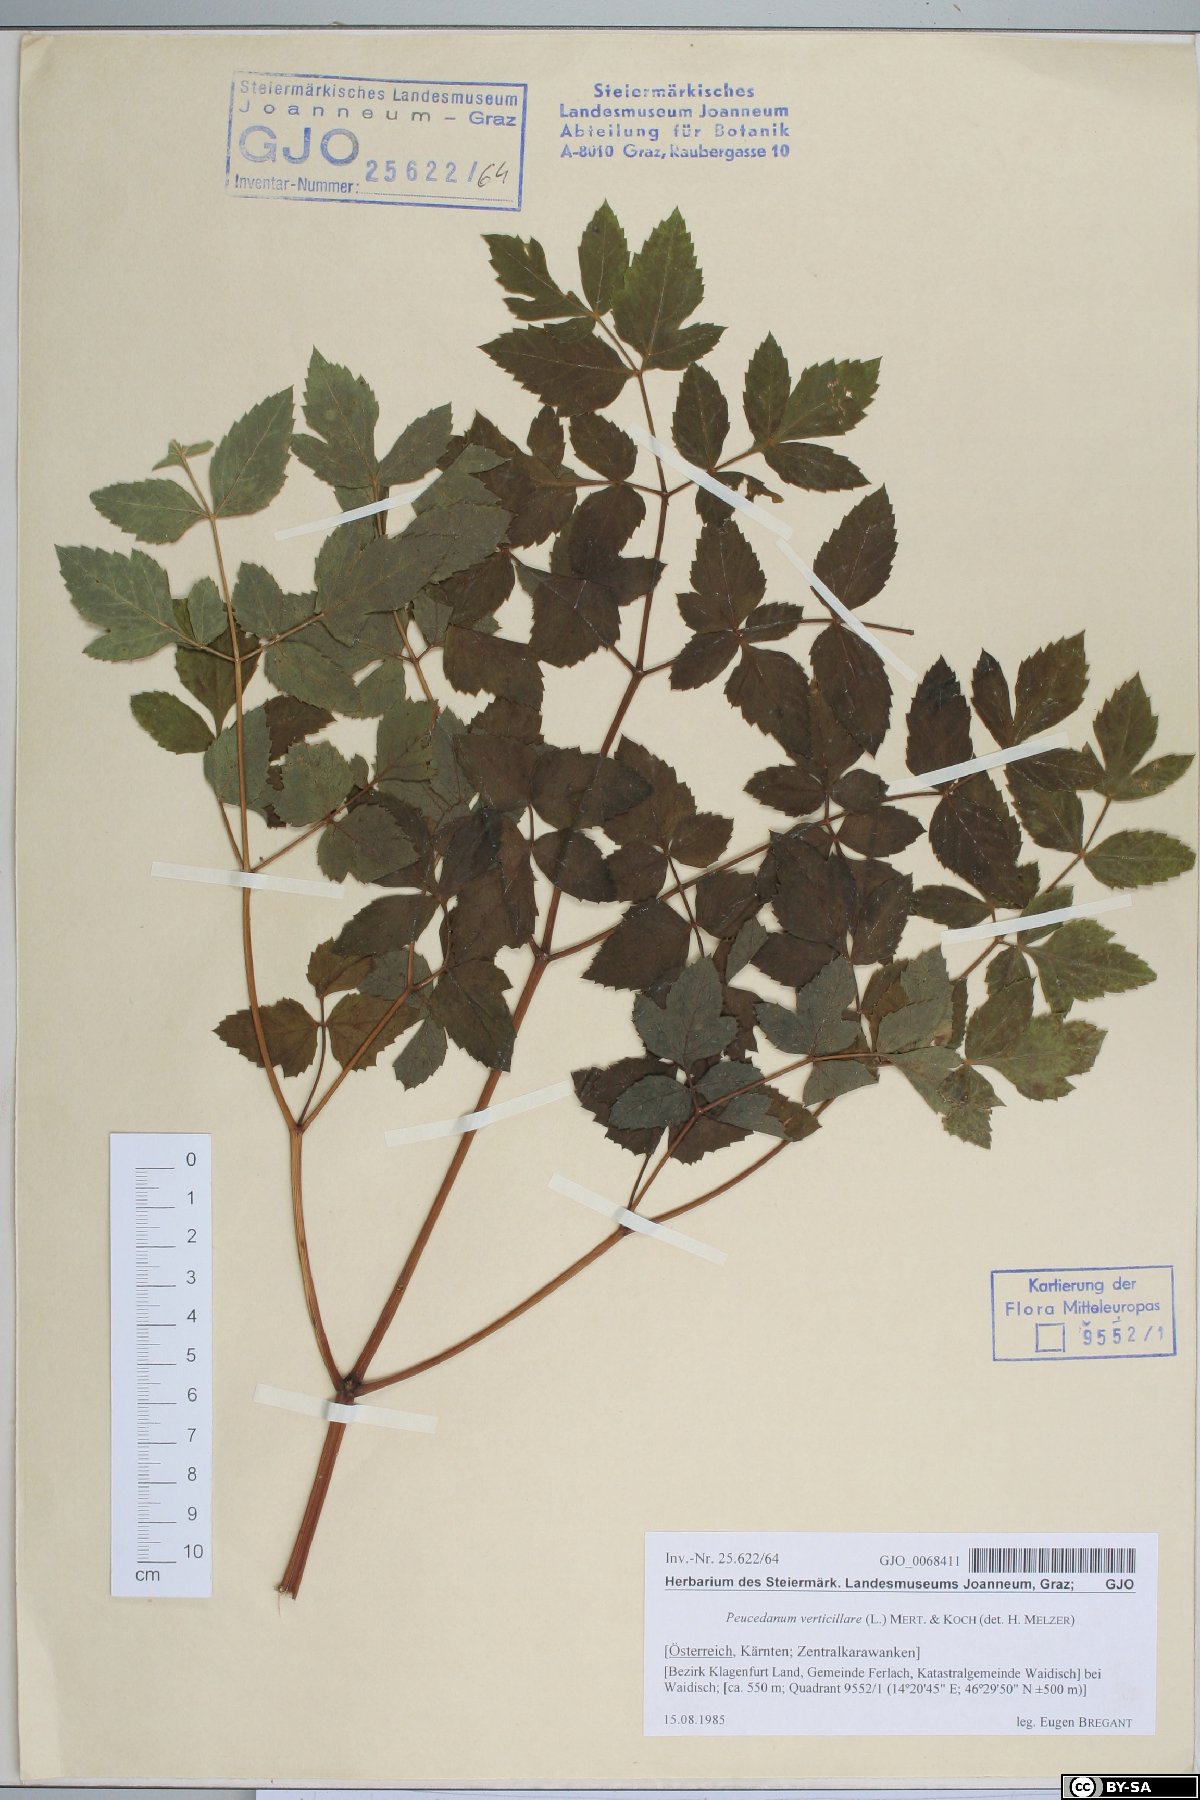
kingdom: Plantae
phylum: Tracheophyta
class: Magnoliopsida
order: Apiales
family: Apiaceae
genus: Tommasinia
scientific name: Tommasinia altissima
